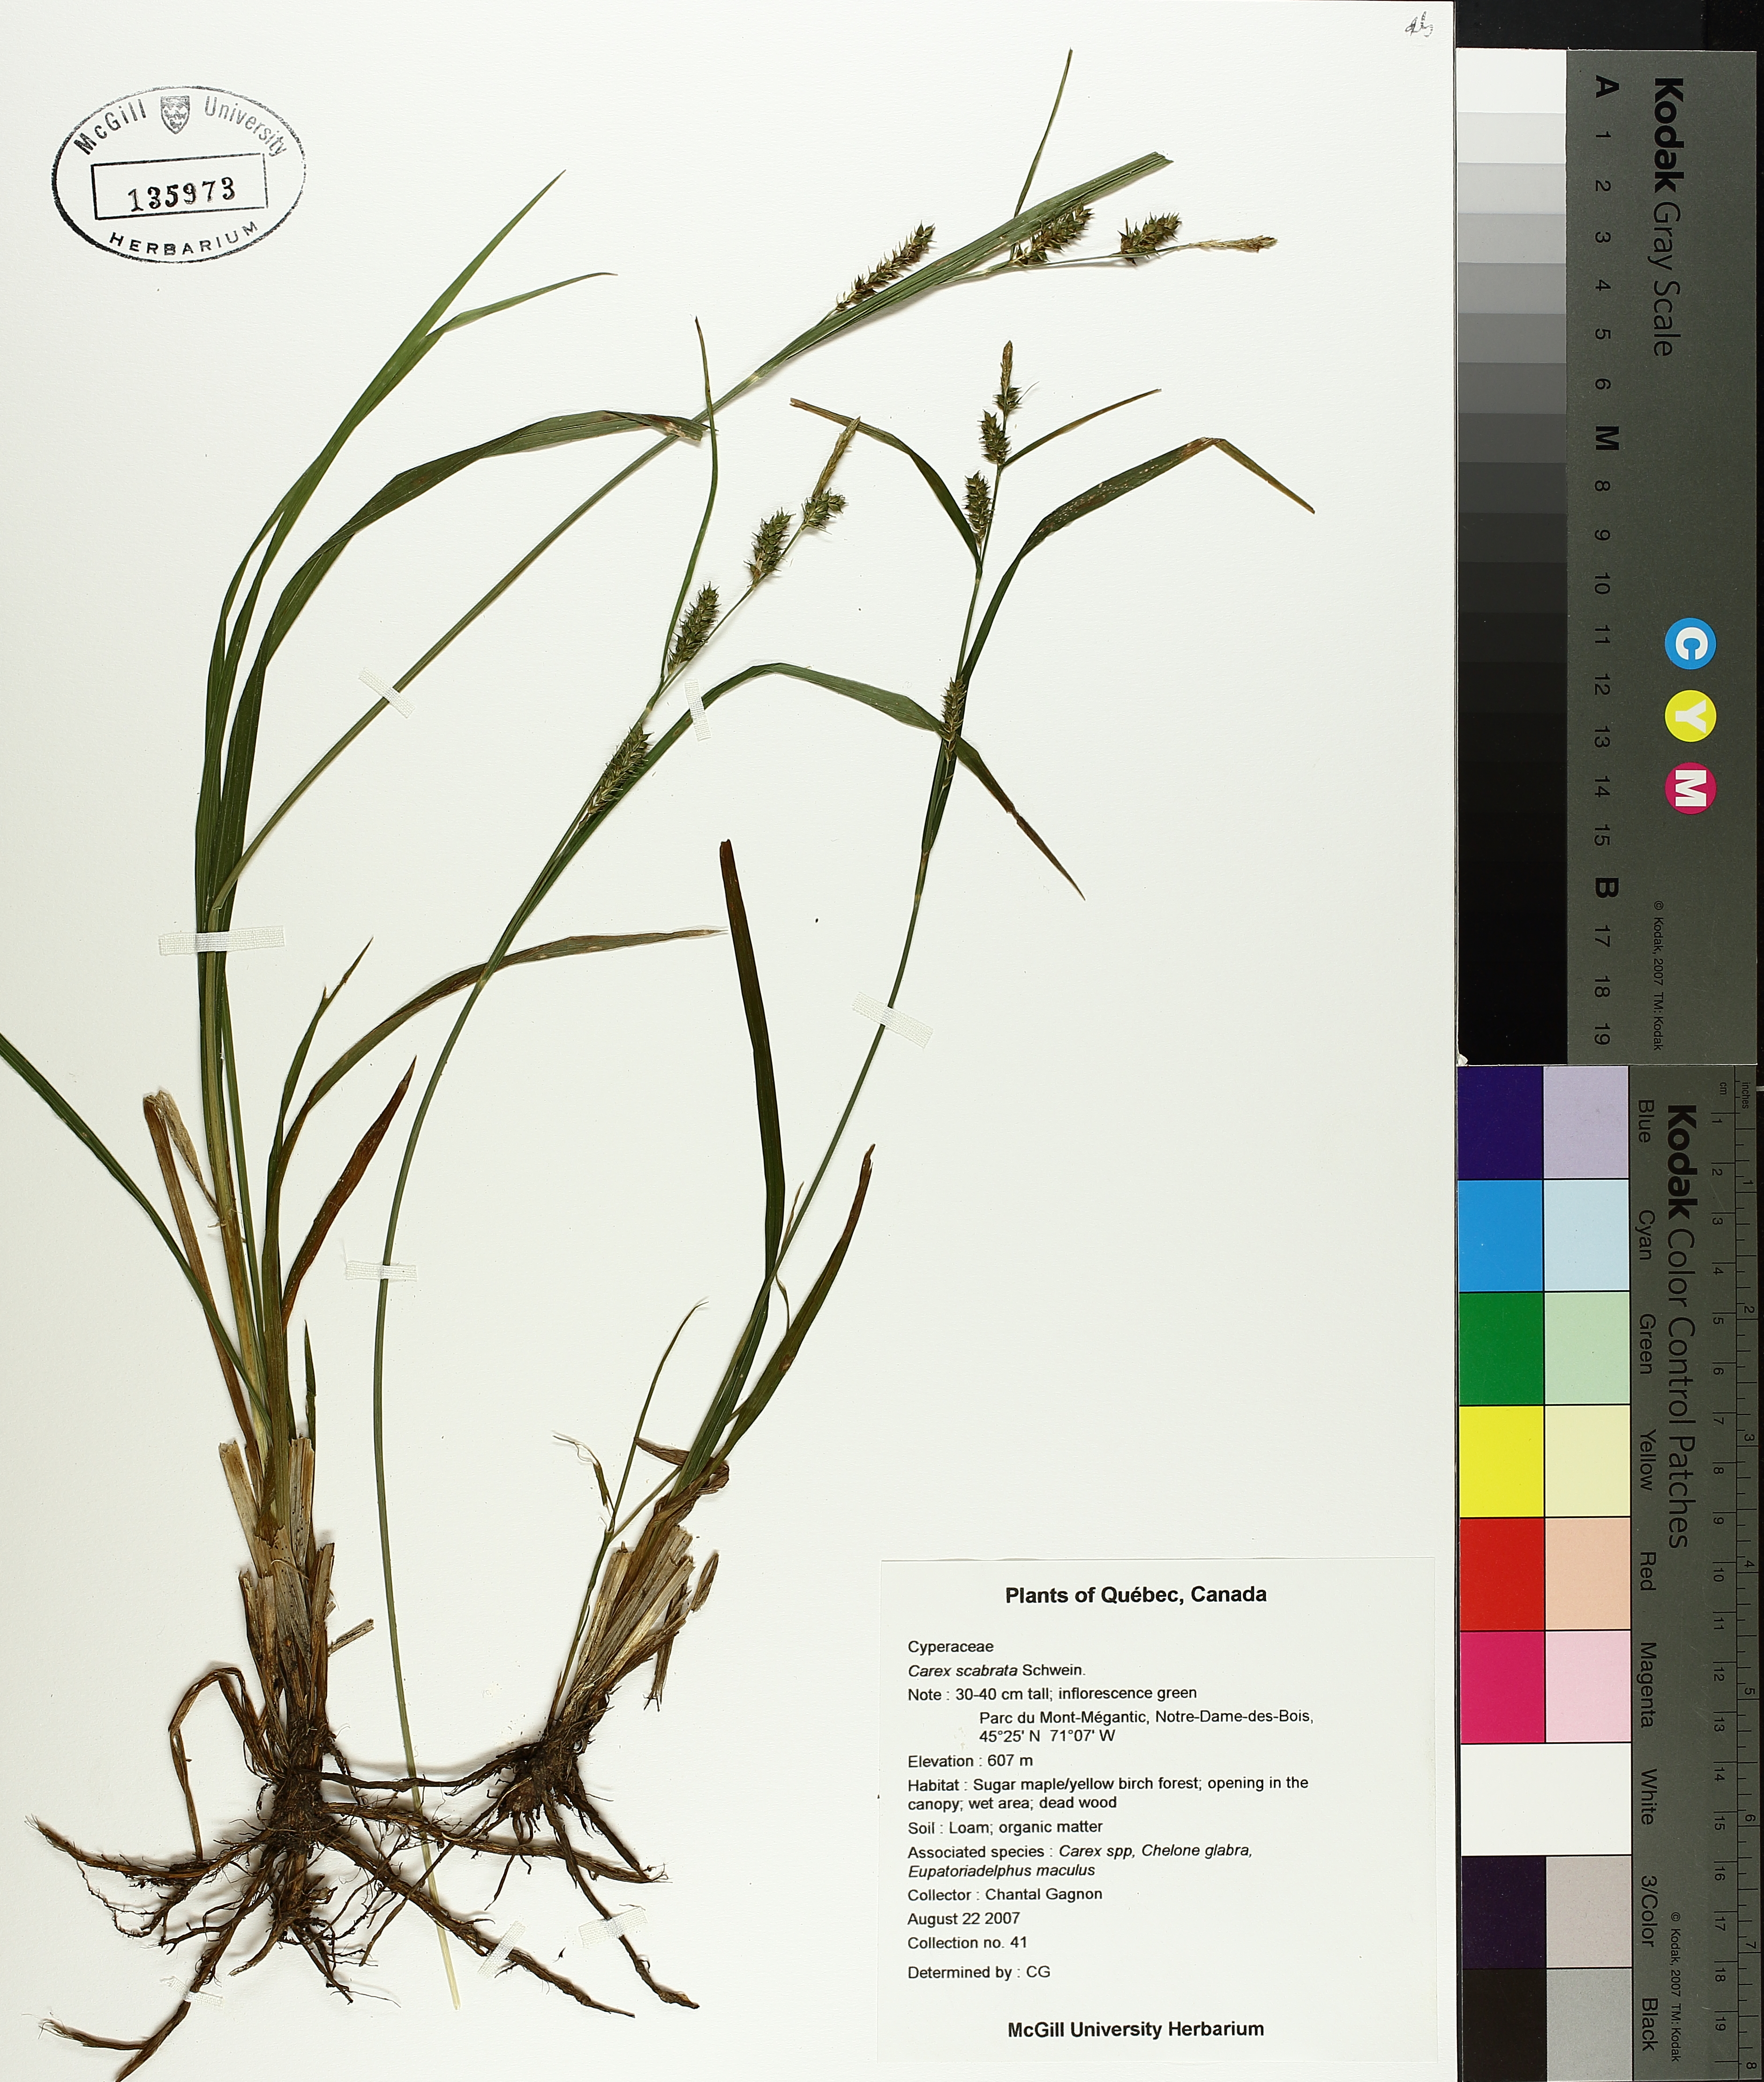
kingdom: Plantae
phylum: Tracheophyta
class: Liliopsida
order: Poales
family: Cyperaceae
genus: Carex
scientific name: Carex scabrata
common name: Eastern rough sedge
